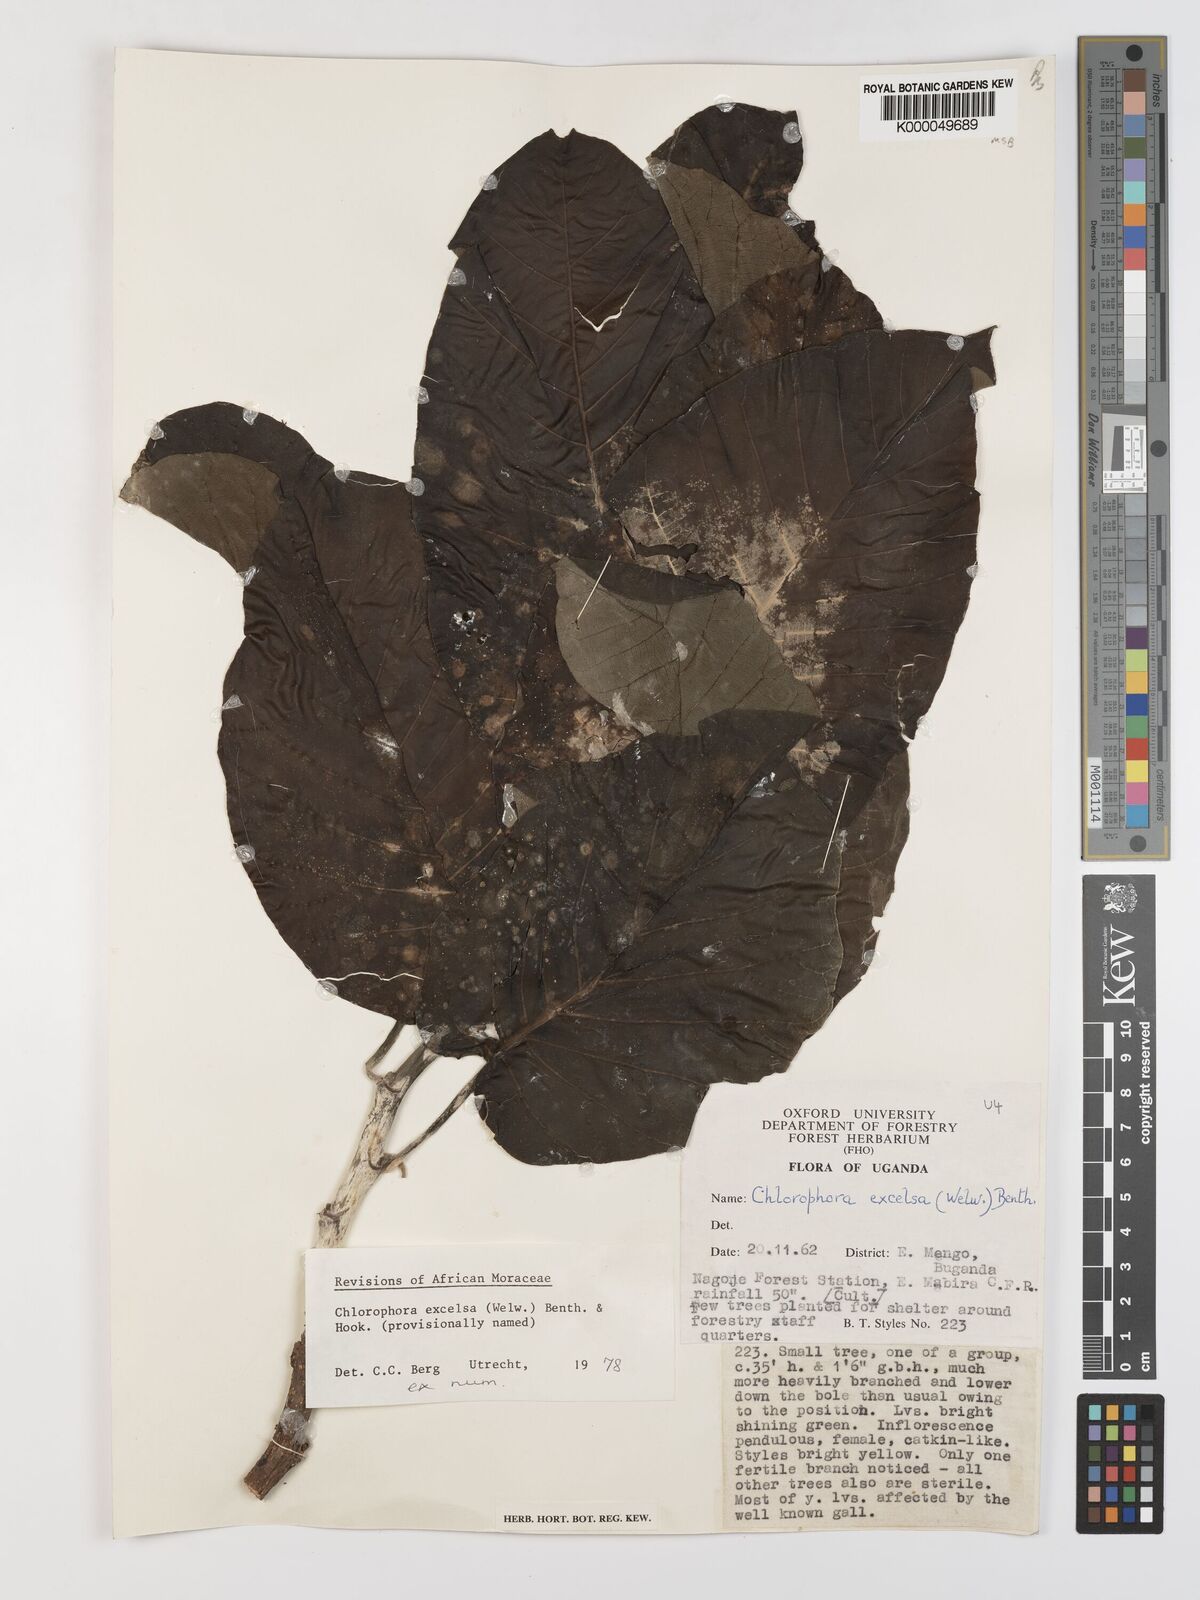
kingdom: Plantae
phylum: Tracheophyta
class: Magnoliopsida
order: Rosales
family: Moraceae
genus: Milicia
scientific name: Milicia excelsa
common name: African teak
